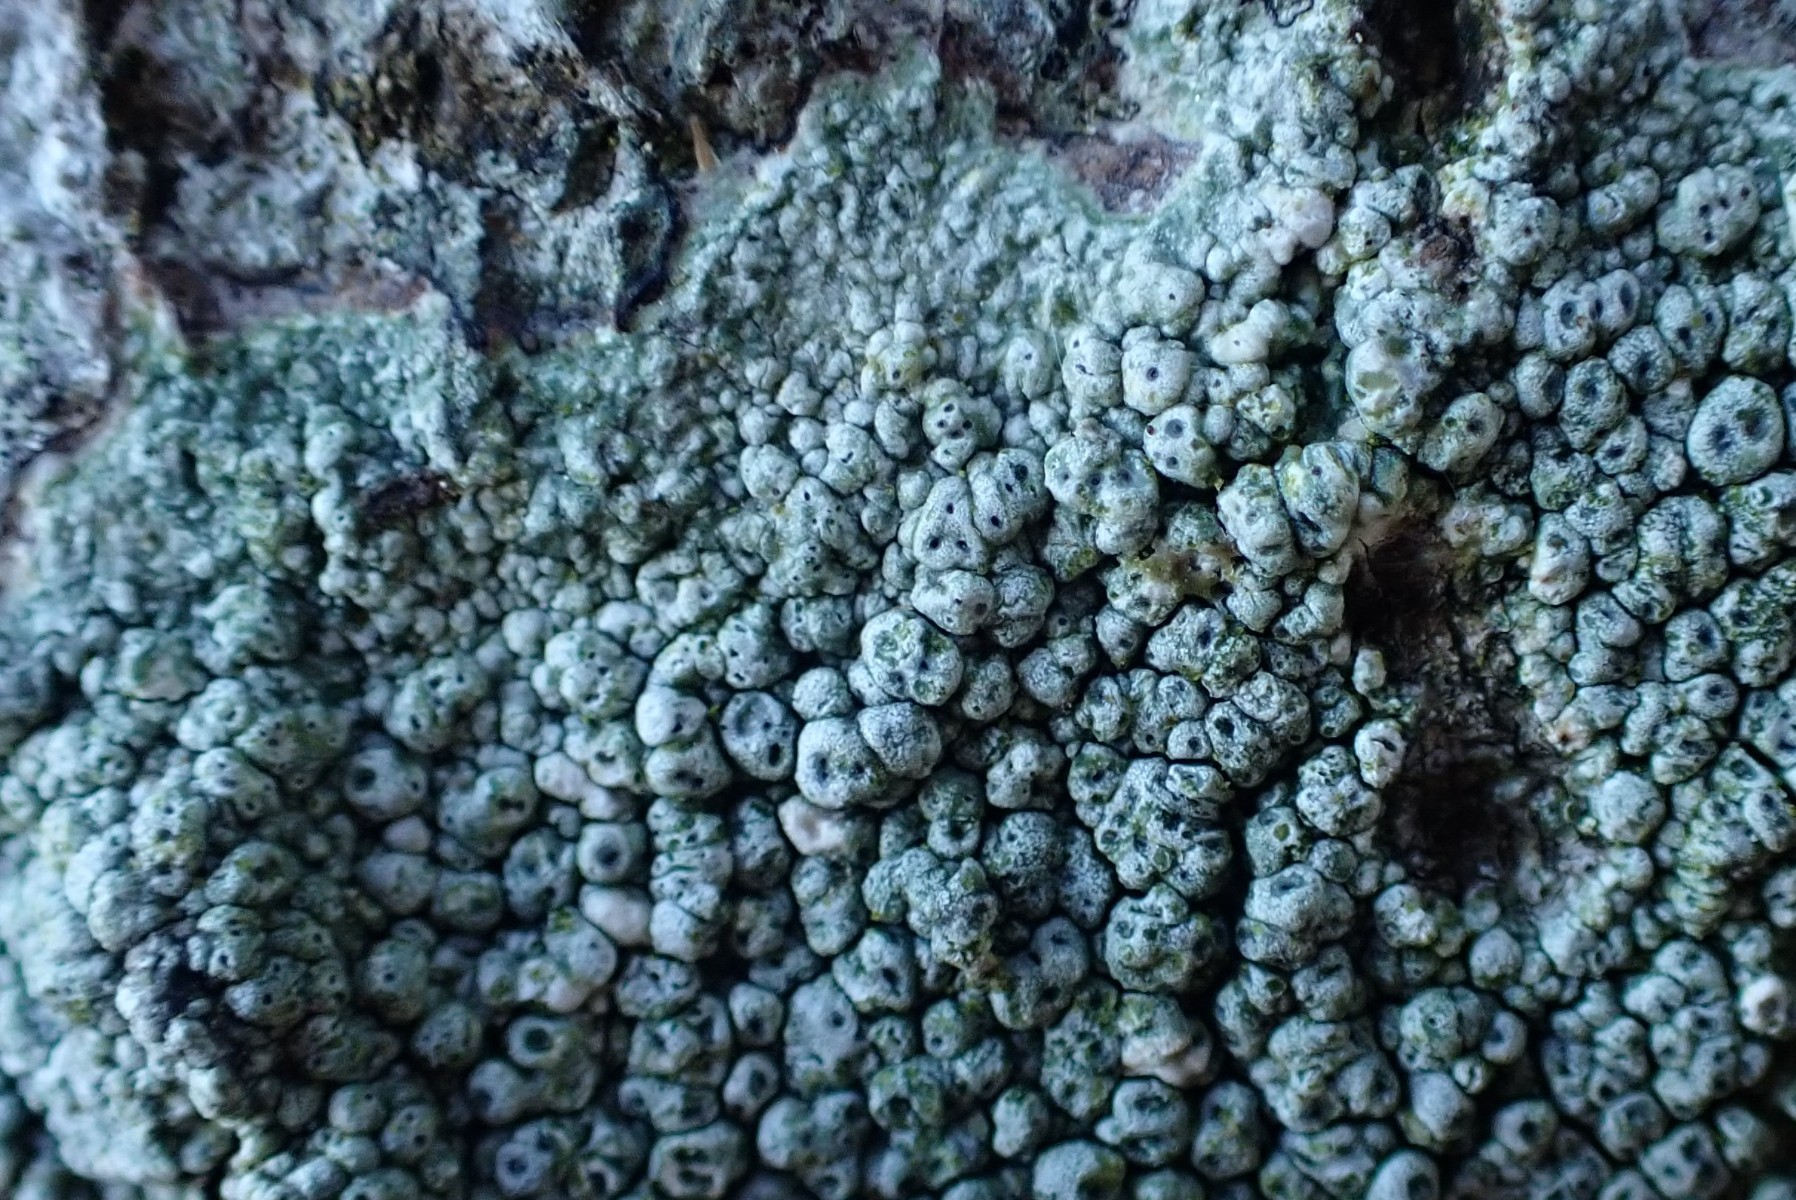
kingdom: Fungi
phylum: Ascomycota
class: Lecanoromycetes
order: Pertusariales
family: Pertusariaceae
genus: Pertusaria
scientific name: Pertusaria pertusa
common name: almindelig prikvortelav
